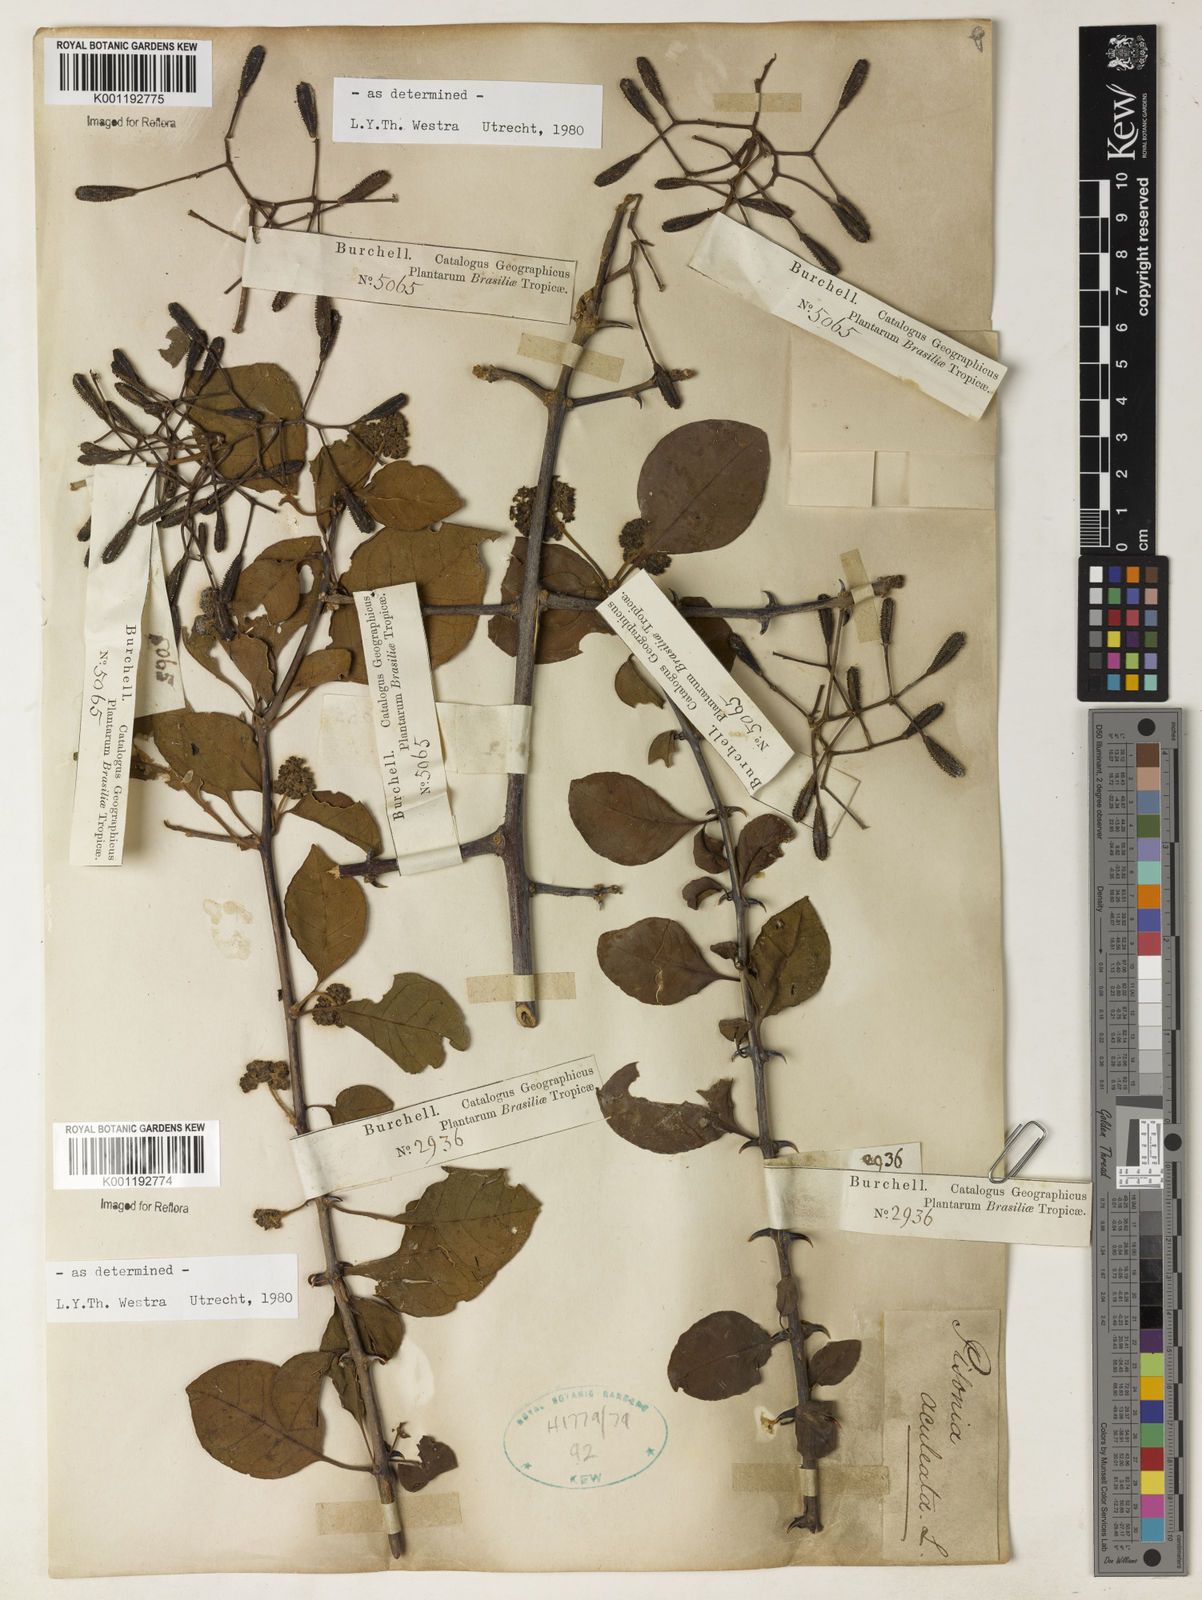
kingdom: Plantae
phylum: Tracheophyta
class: Magnoliopsida
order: Caryophyllales
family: Nyctaginaceae
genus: Pisonia
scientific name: Pisonia aculeata
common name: Cockspur vine
